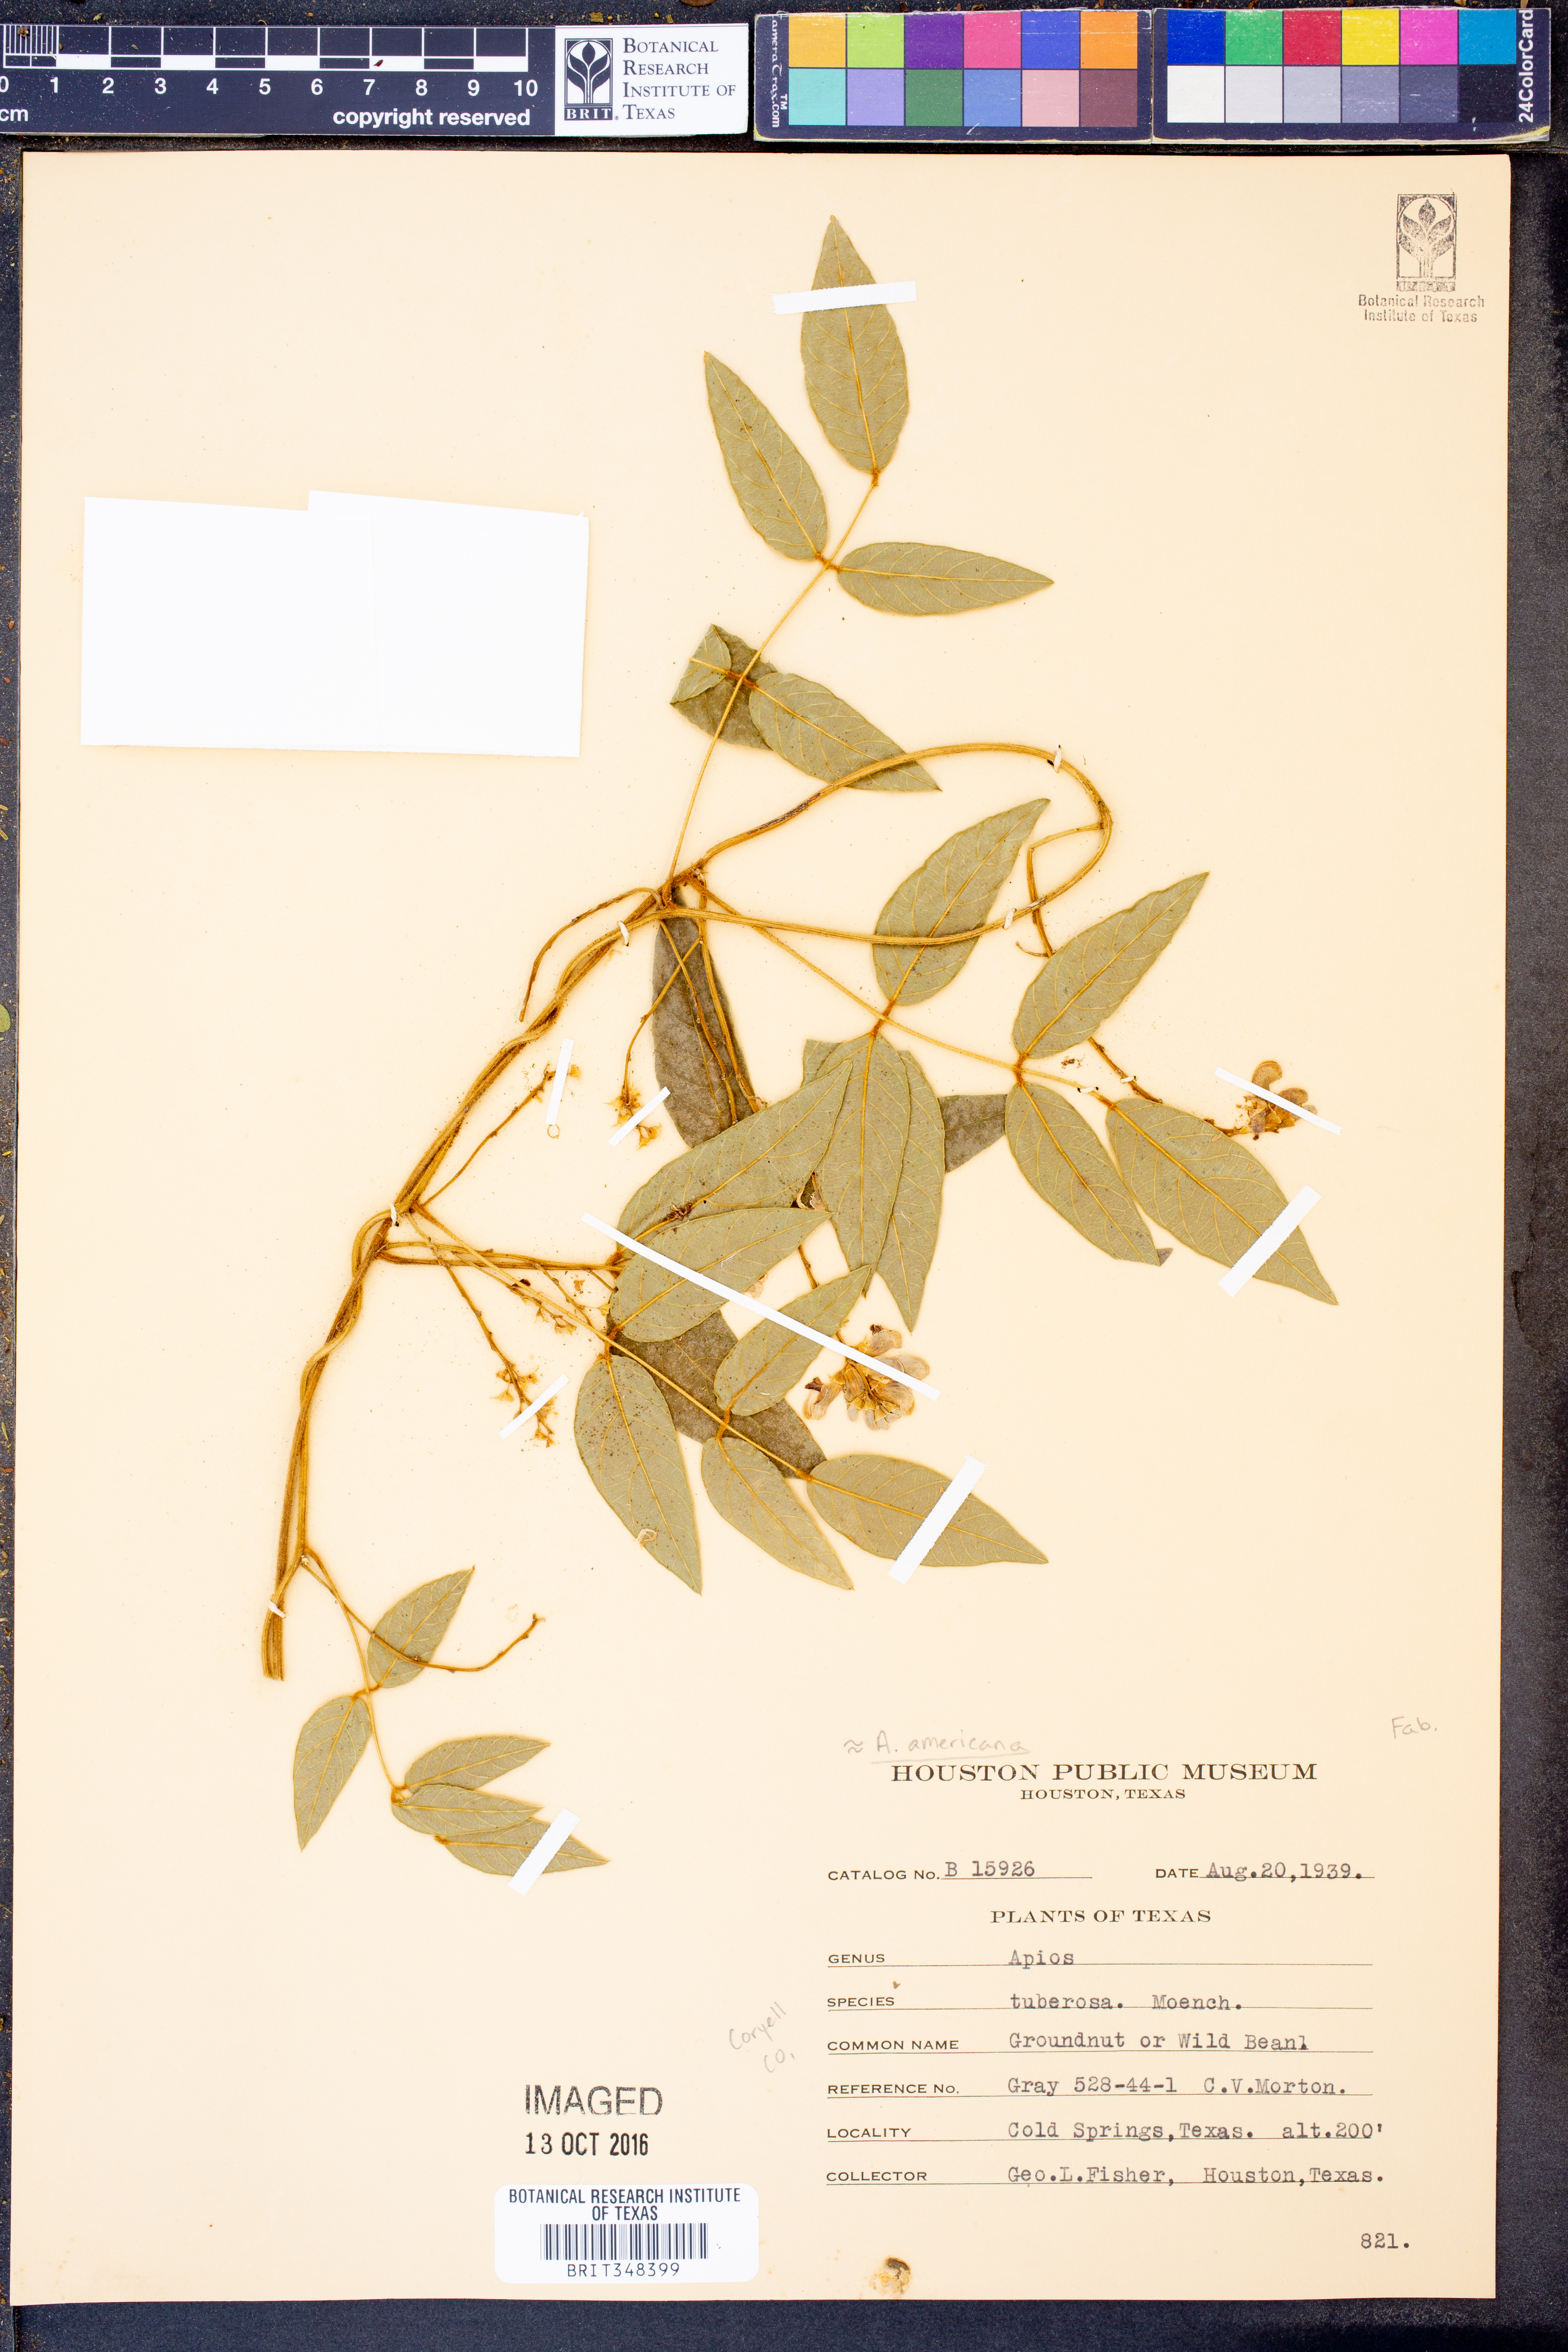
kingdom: Plantae
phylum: Tracheophyta
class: Magnoliopsida
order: Fabales
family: Fabaceae
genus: Apios
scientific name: Apios americana
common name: American potato-bean
